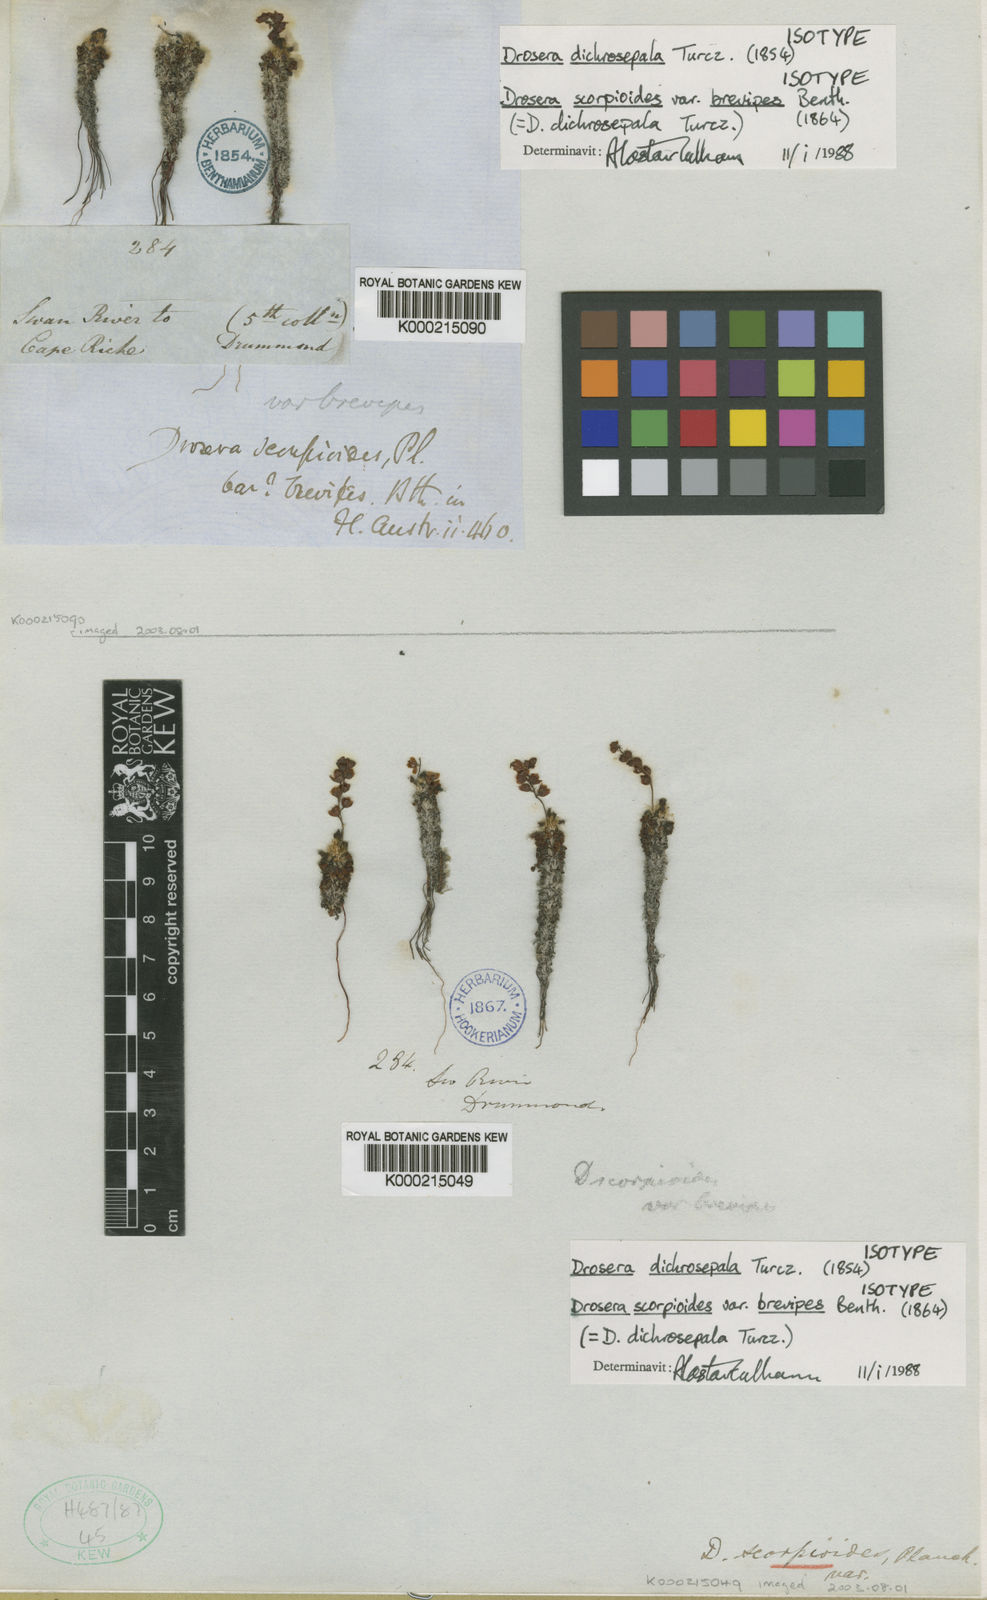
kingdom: Plantae
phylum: Tracheophyta
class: Magnoliopsida
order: Caryophyllales
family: Droseraceae
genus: Drosera
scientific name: Drosera dichrosepala
